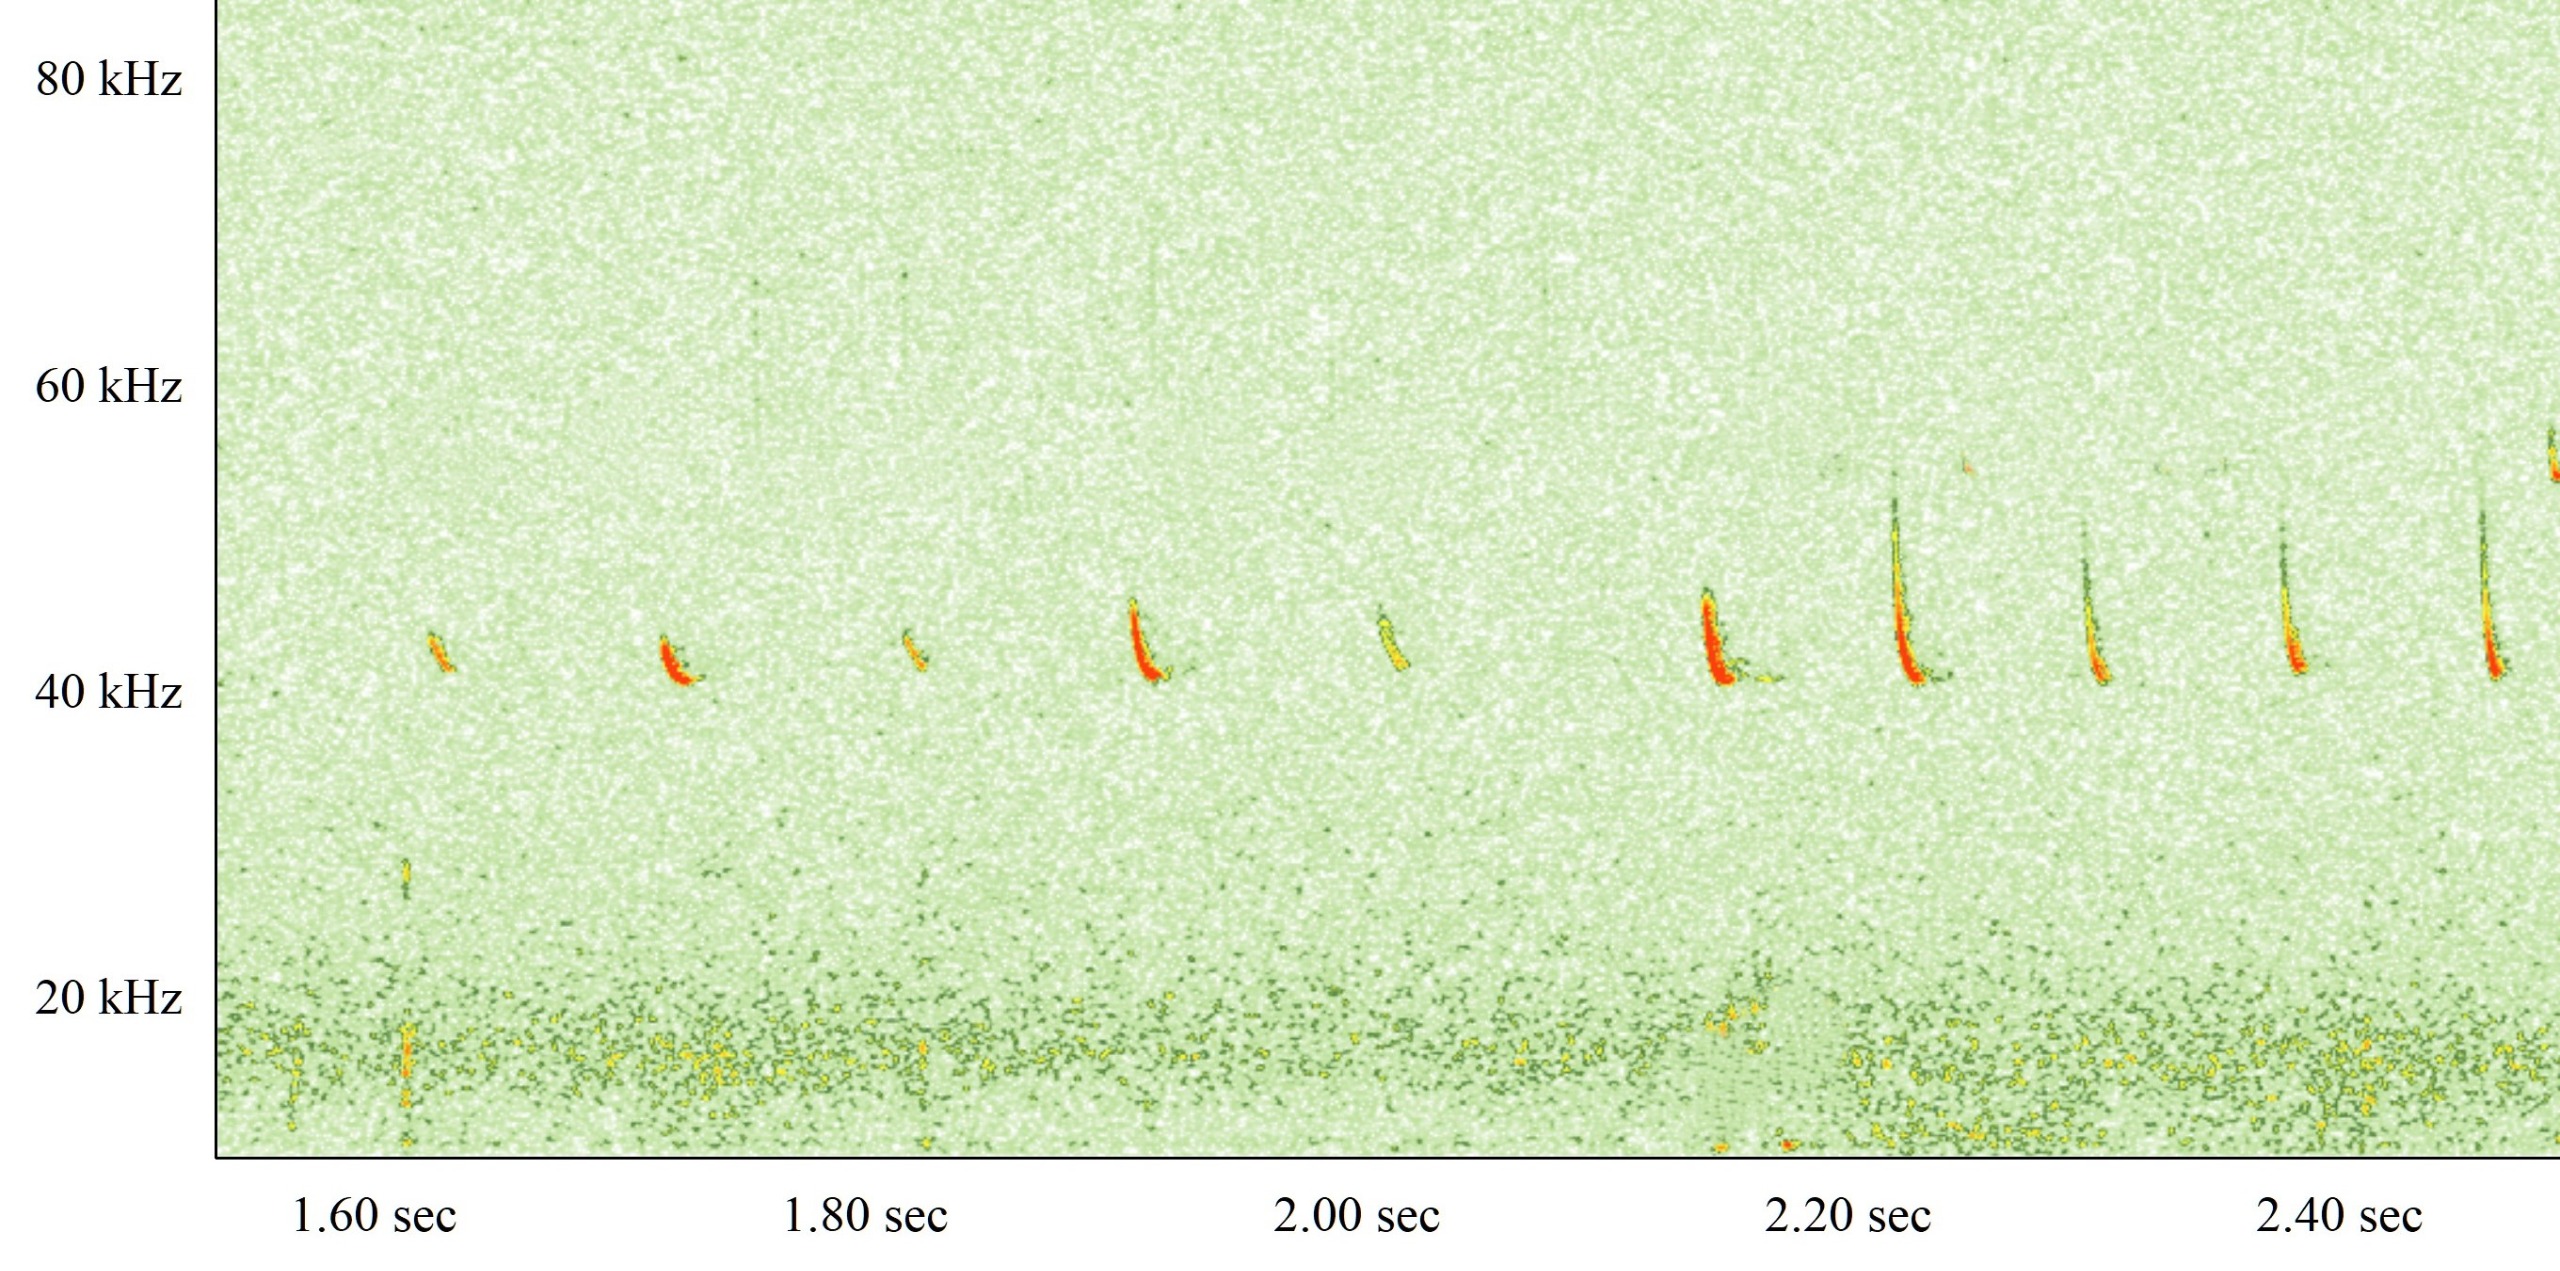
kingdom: Animalia
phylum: Chordata
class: Mammalia
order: Chiroptera
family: Vespertilionidae
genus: Pipistrellus
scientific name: Pipistrellus nathusii
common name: Troldflagermus
